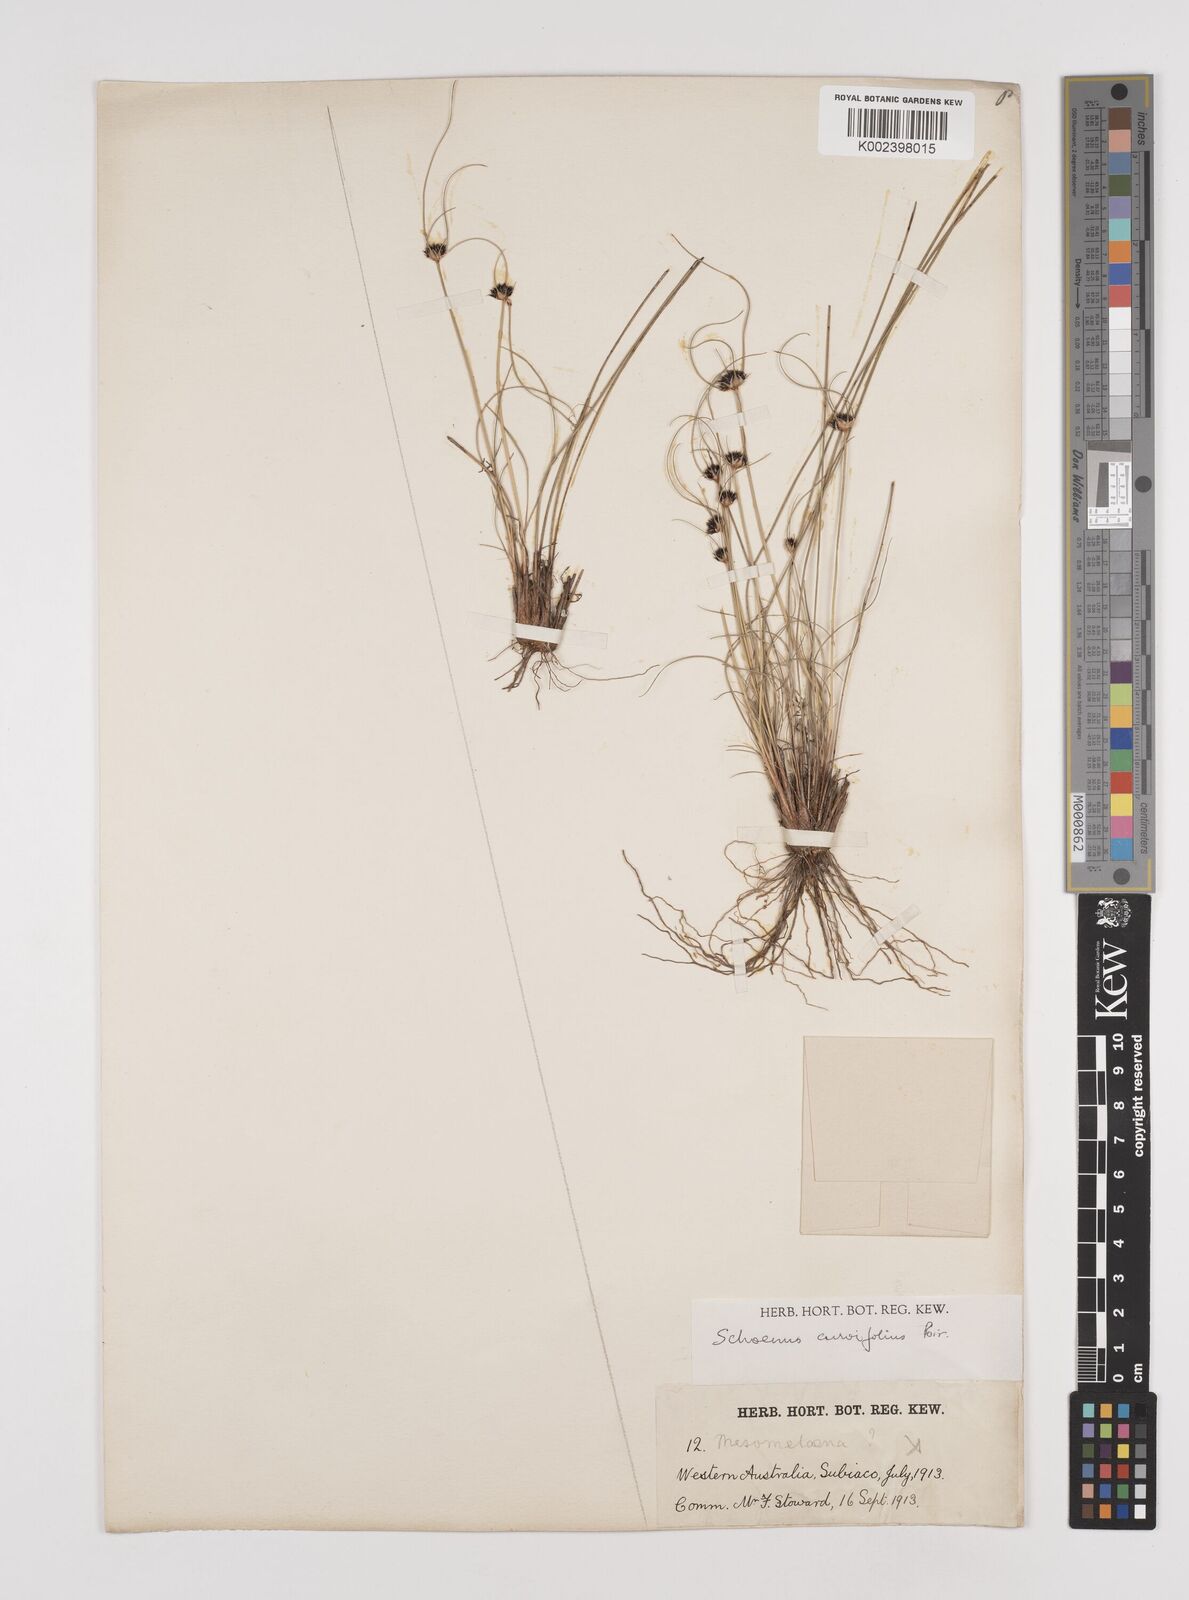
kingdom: Plantae
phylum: Tracheophyta
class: Liliopsida
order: Poales
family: Cyperaceae
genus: Schoenus
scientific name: Schoenus curvifolius
